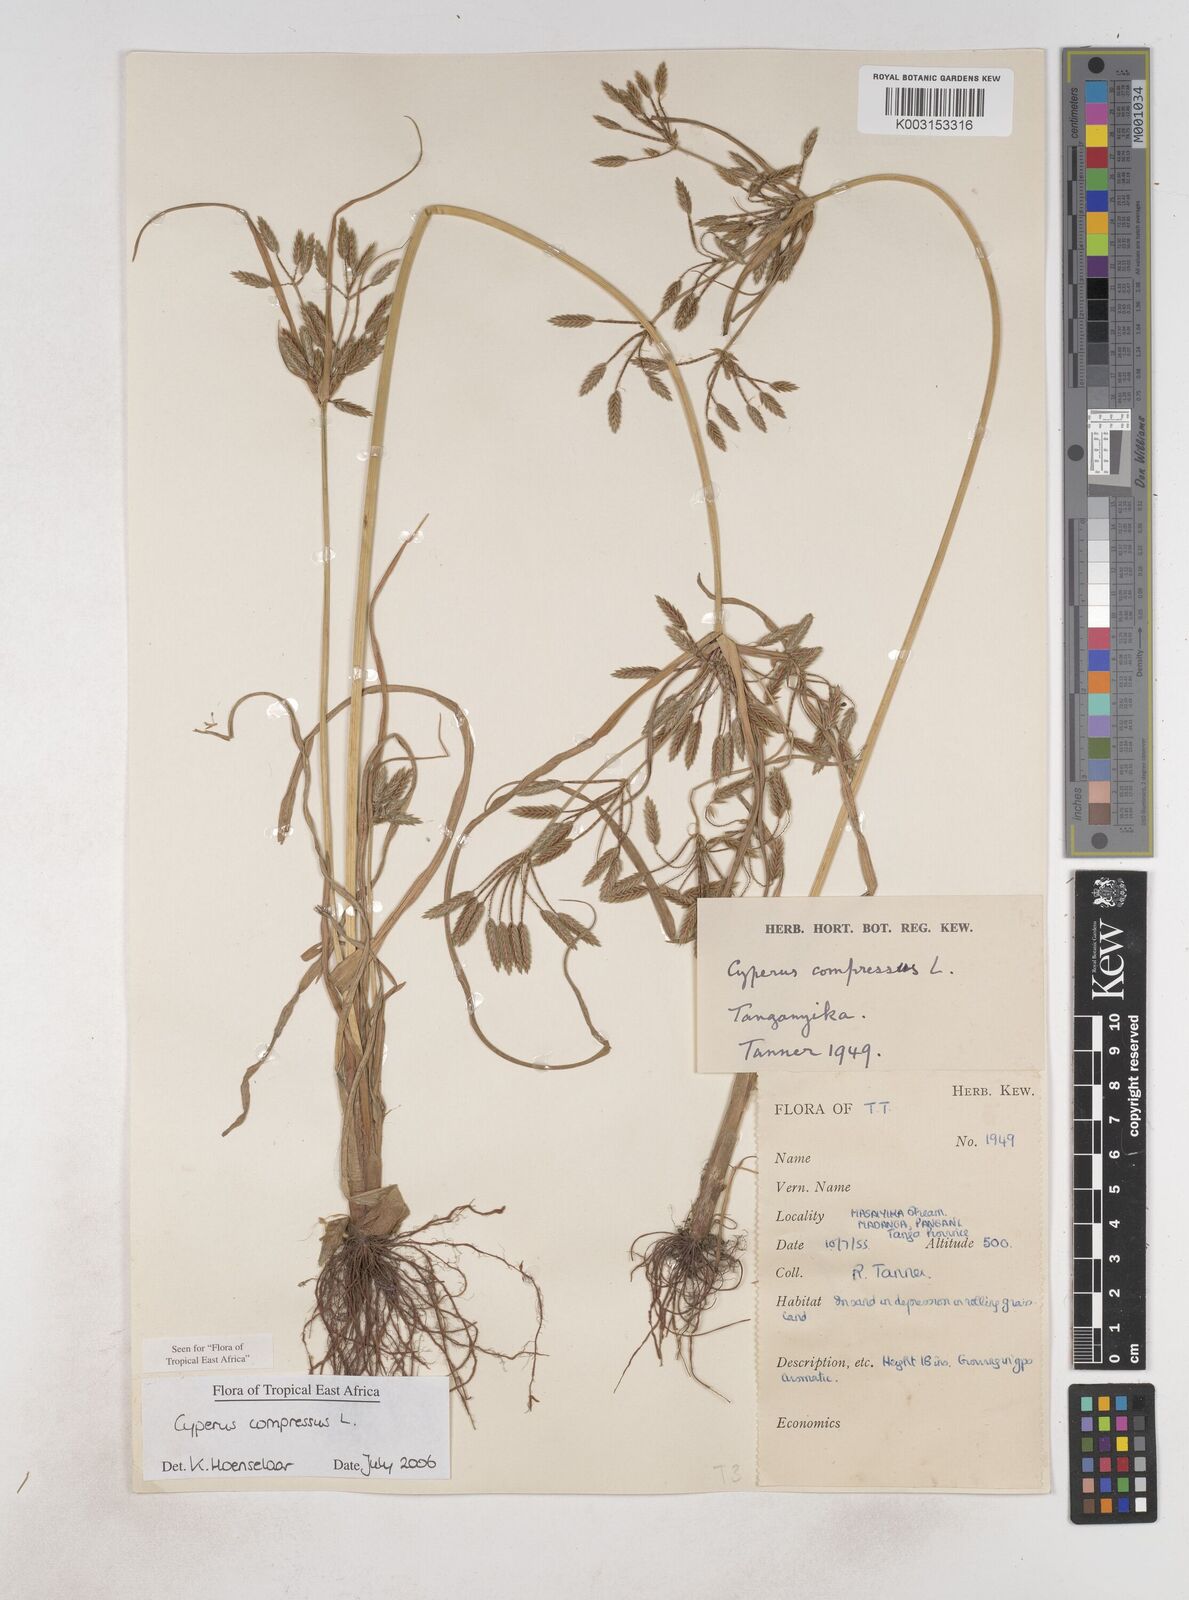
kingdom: Plantae
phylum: Tracheophyta
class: Liliopsida
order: Poales
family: Cyperaceae
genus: Cyperus
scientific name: Cyperus compressus
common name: Poorland flatsedge
